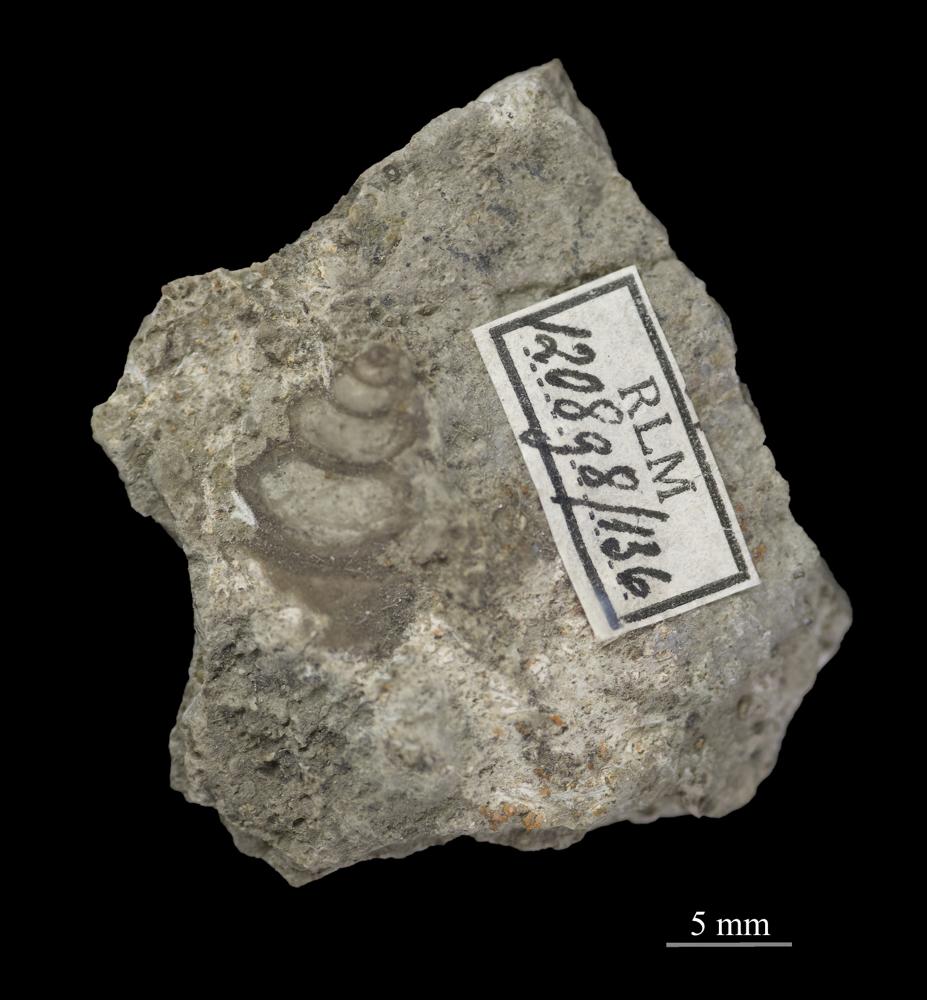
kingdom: Animalia
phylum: Mollusca
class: Gastropoda
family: Lophospiridae
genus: Loxoplocus
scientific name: Loxoplocus Turbo silurica
